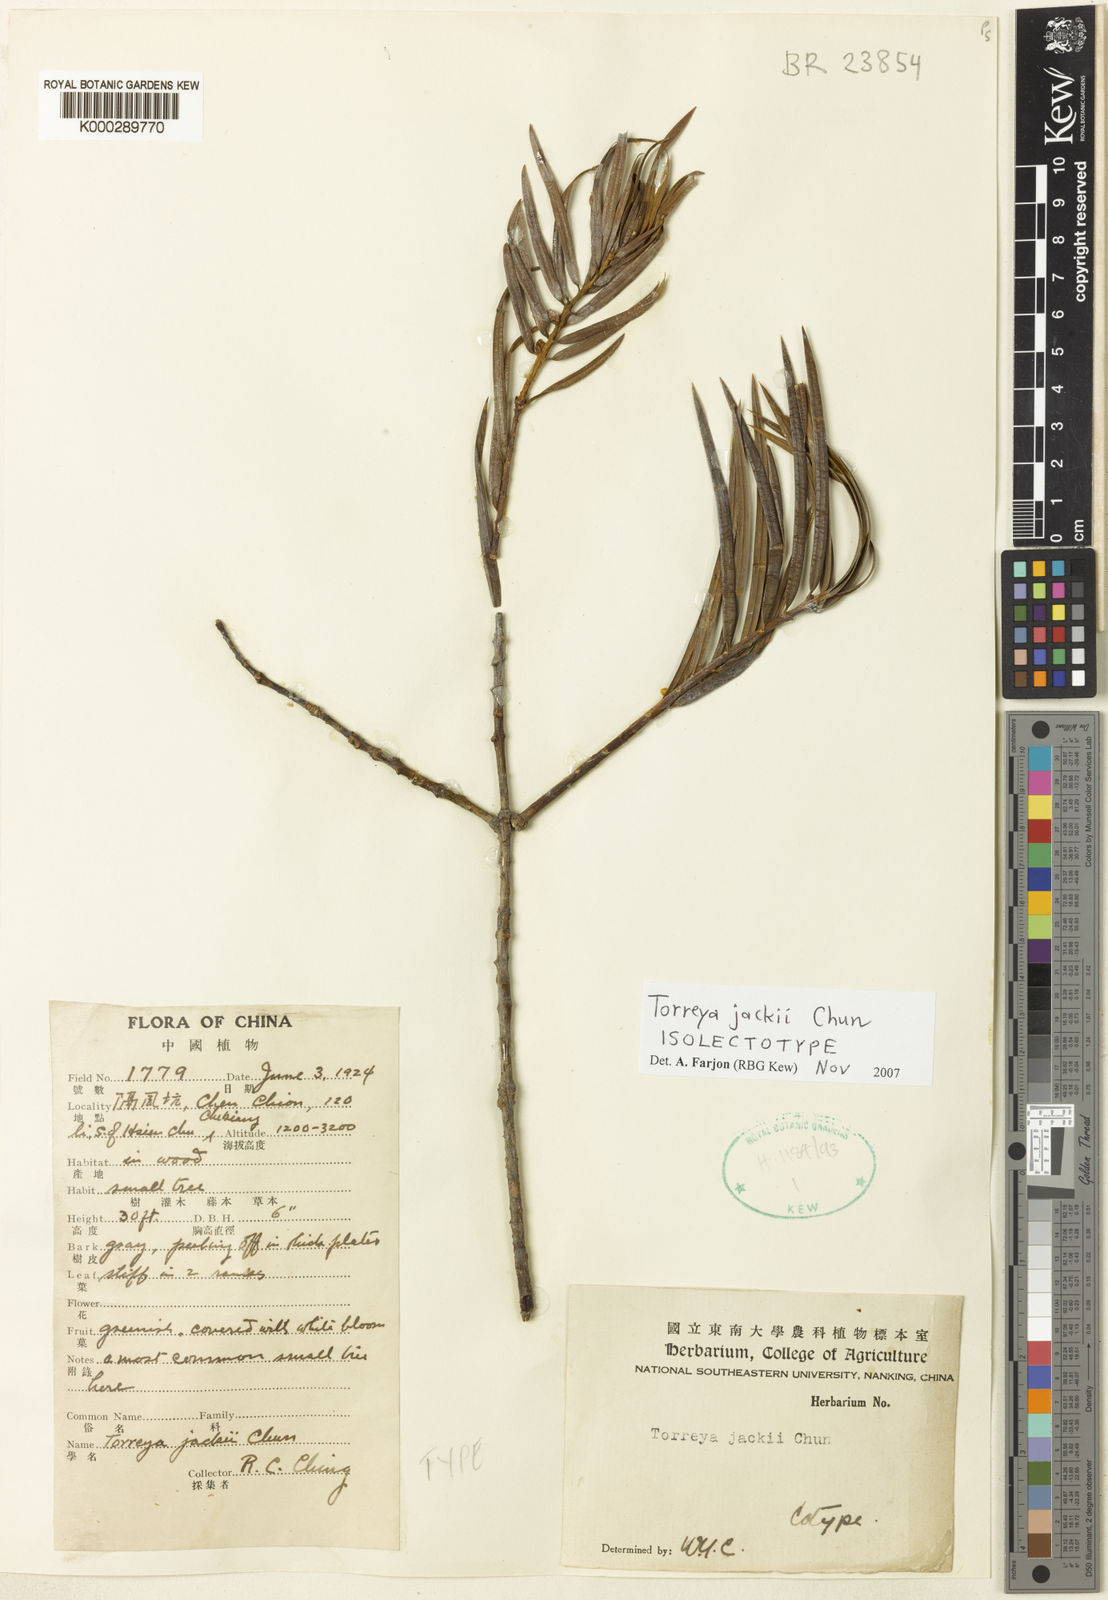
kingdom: Plantae
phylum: Tracheophyta
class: Pinopsida
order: Pinales
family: Taxaceae
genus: Torreya
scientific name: Torreya jackii
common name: Jack's nutmeg tree
